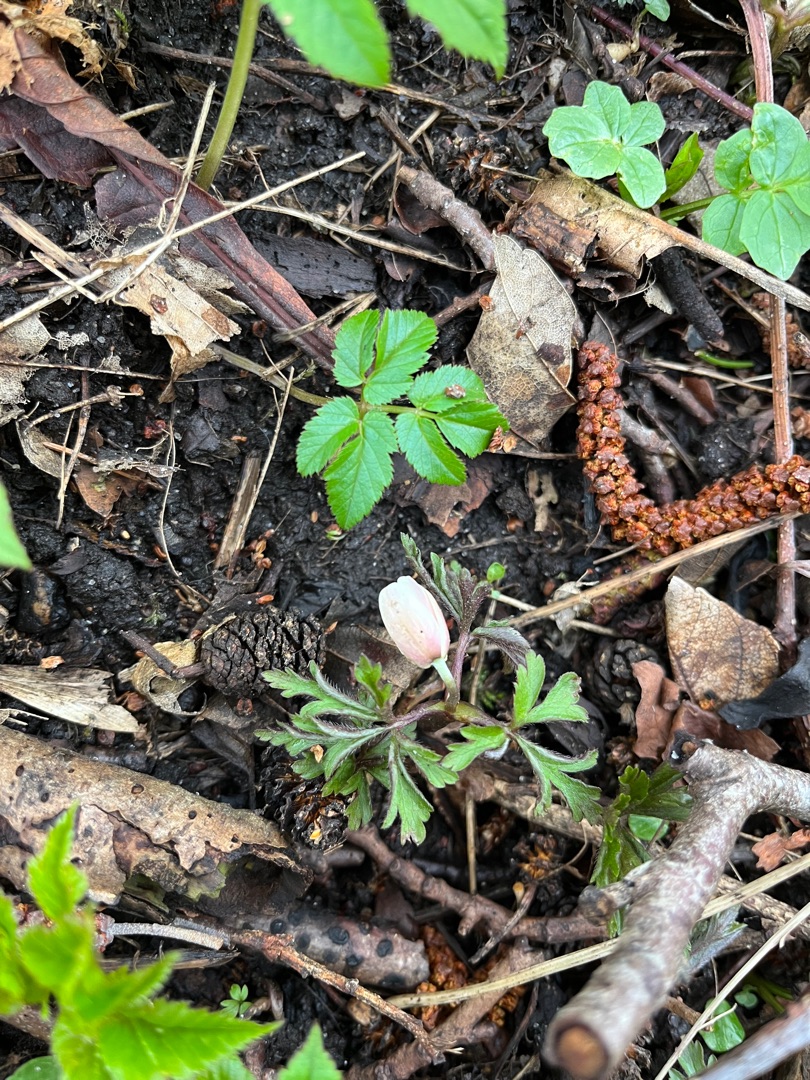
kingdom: Plantae
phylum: Tracheophyta
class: Magnoliopsida
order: Ranunculales
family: Ranunculaceae
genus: Anemone
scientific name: Anemone nemorosa
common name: Hvid anemone
